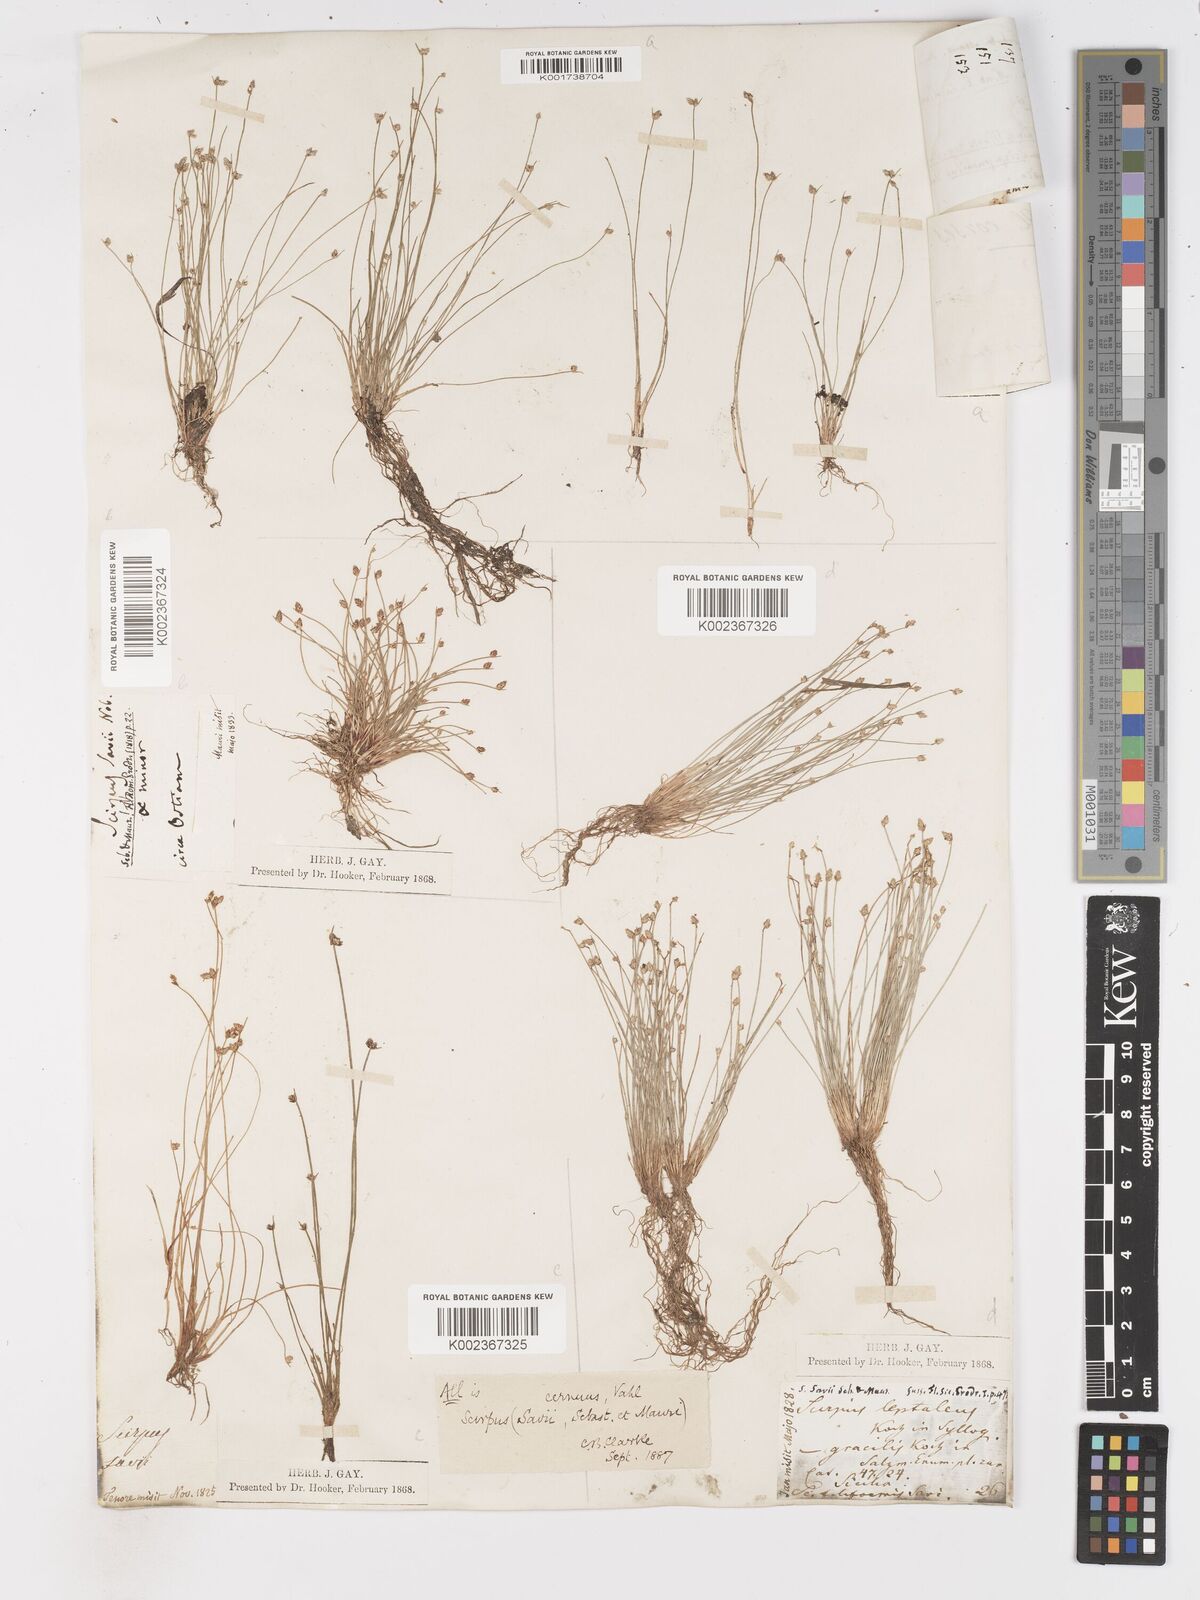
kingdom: Plantae
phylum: Tracheophyta
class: Liliopsida
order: Poales
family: Cyperaceae
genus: Isolepis
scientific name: Isolepis cernua
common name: Slender club-rush
